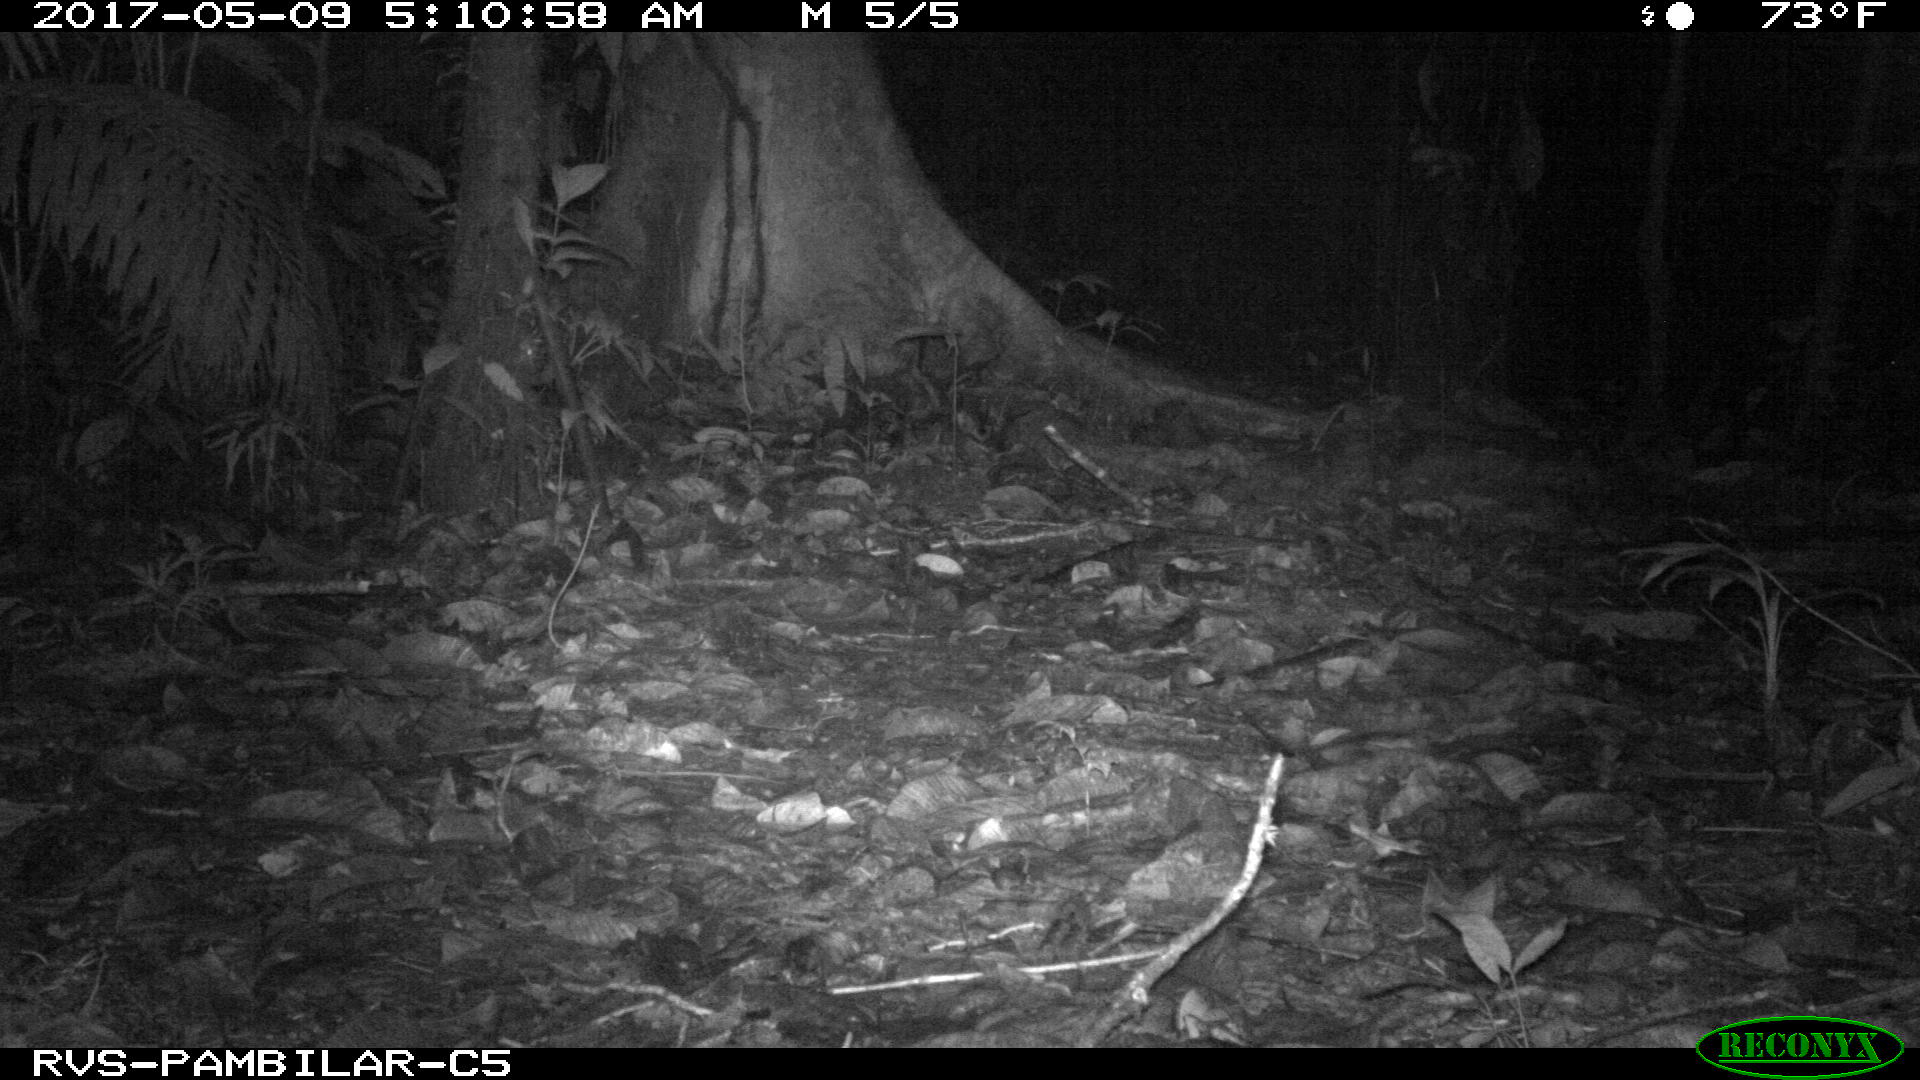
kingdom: Animalia
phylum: Chordata
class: Mammalia
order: Carnivora
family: Felidae
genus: Leopardus
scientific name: Leopardus pardalis
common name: Ocelot
